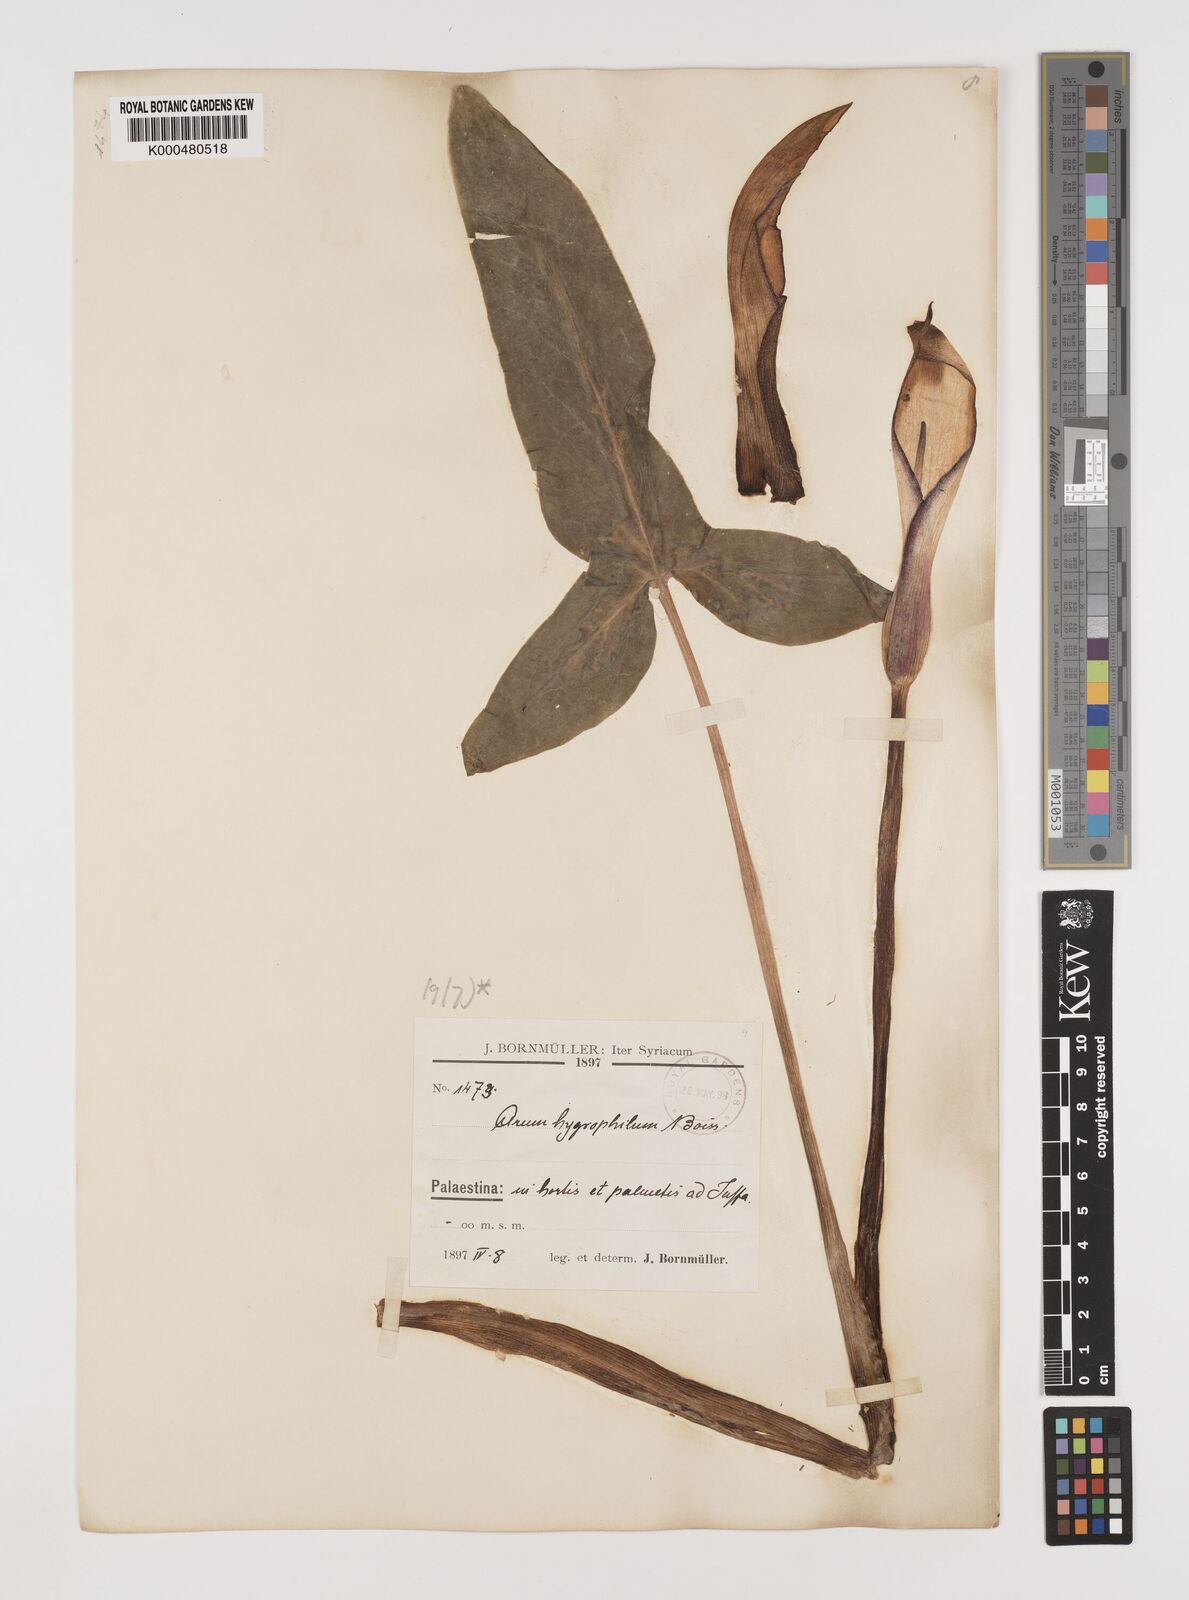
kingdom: Plantae
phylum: Tracheophyta
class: Liliopsida
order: Alismatales
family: Araceae
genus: Arum
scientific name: Arum hygrophilum
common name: Water arum
